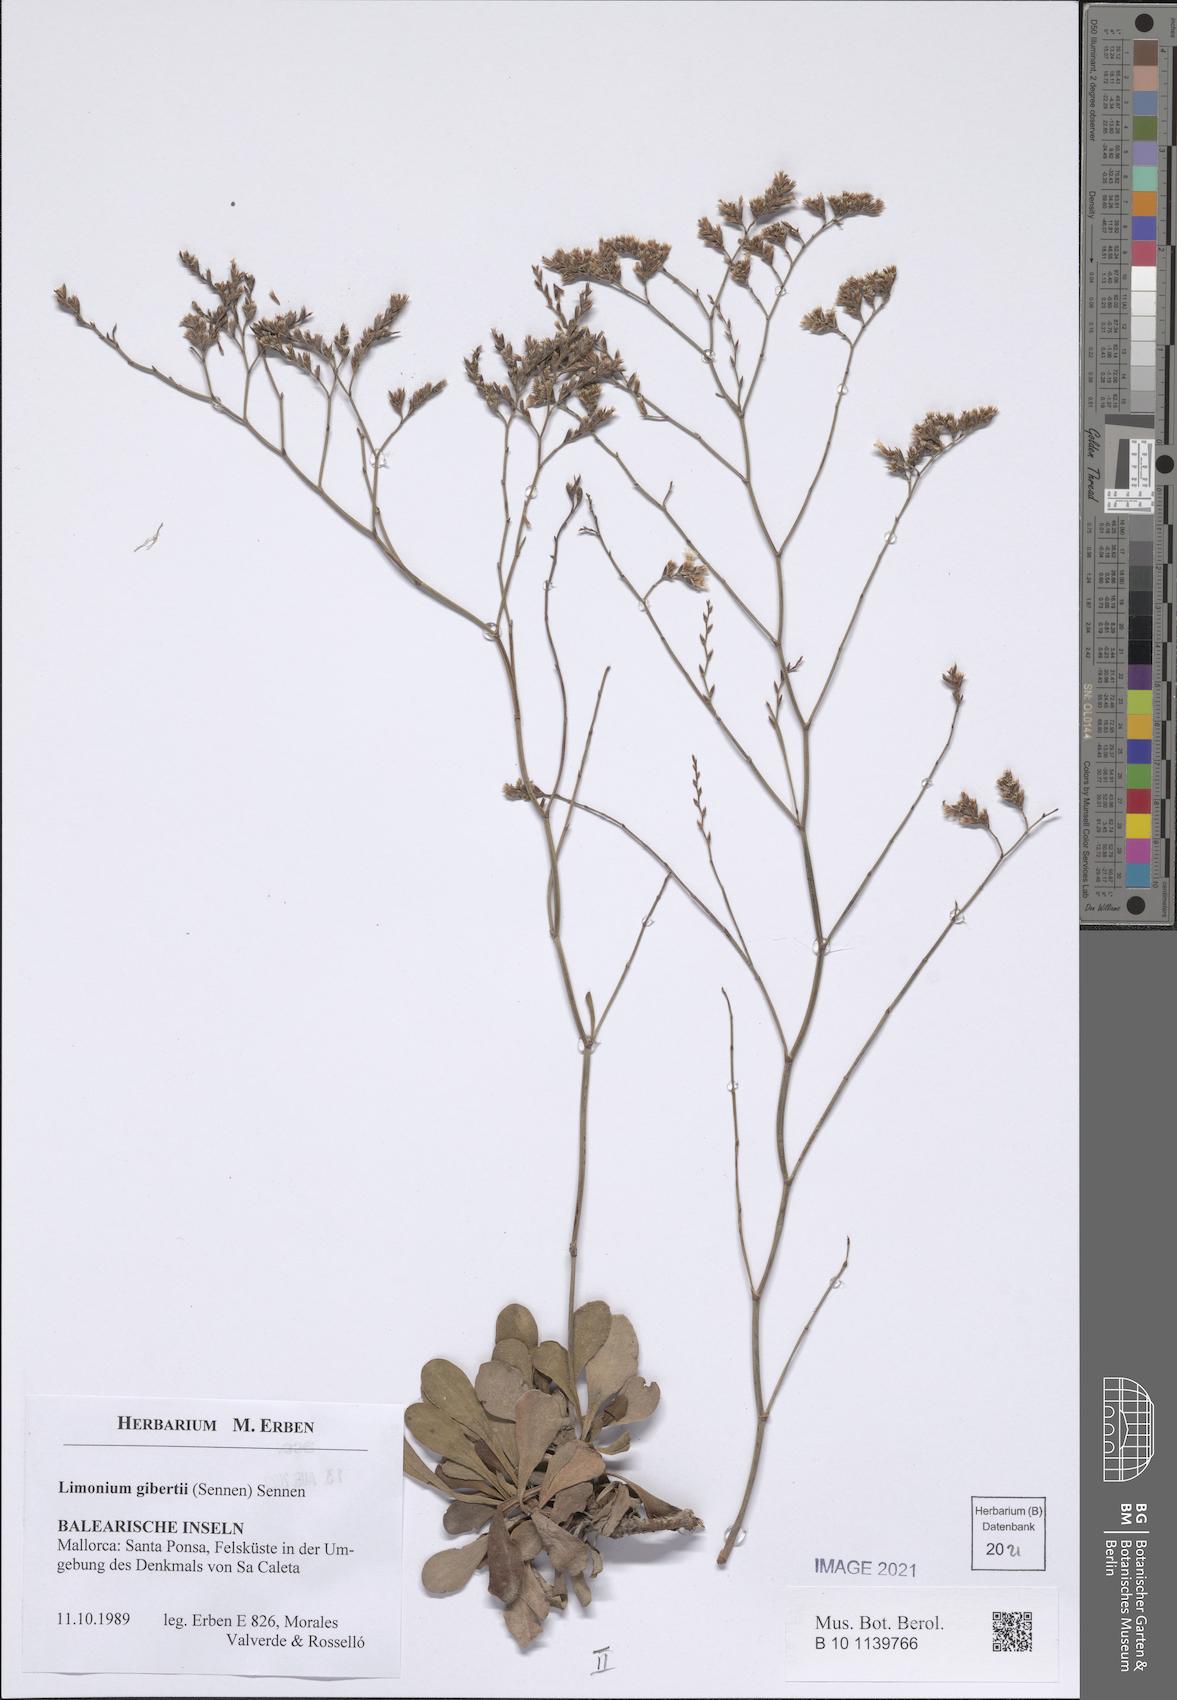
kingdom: Plantae
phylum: Tracheophyta
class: Magnoliopsida
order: Caryophyllales
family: Plumbaginaceae
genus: Limonium
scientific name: Limonium gibertii
